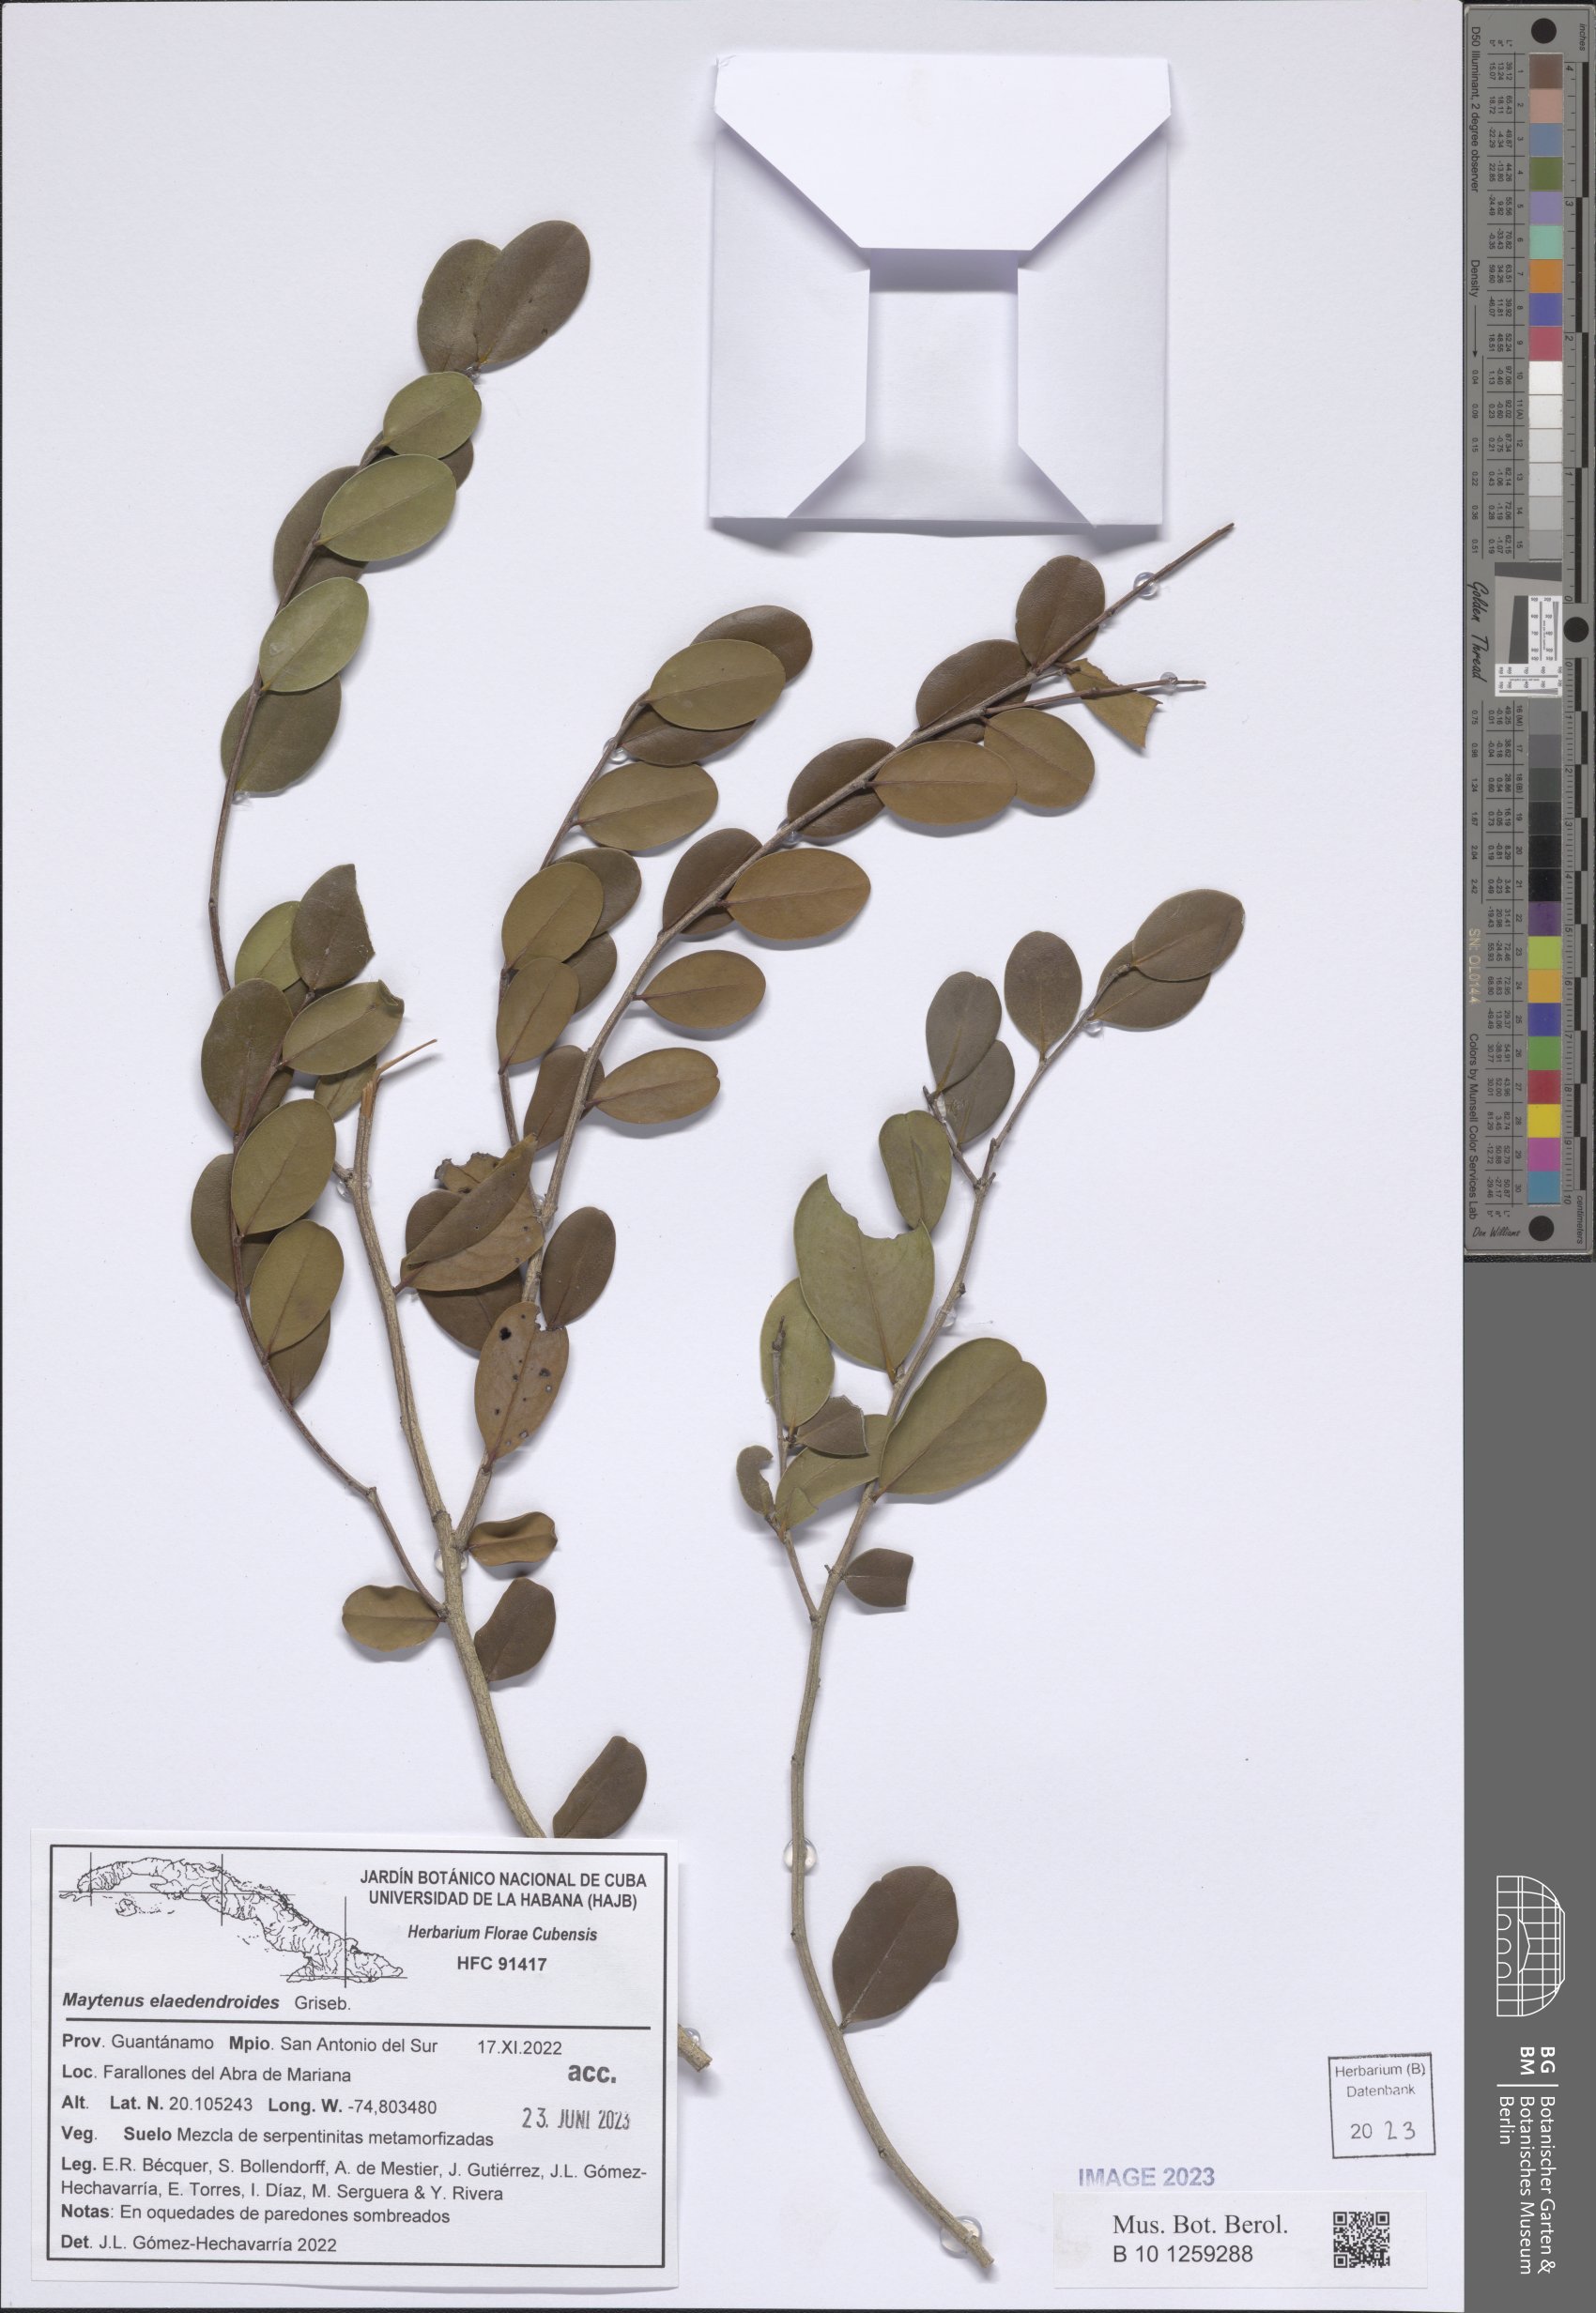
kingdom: Plantae
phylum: Tracheophyta
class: Magnoliopsida
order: Celastrales
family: Celastraceae
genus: Monteverdia
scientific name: Monteverdia elaeodendroides
